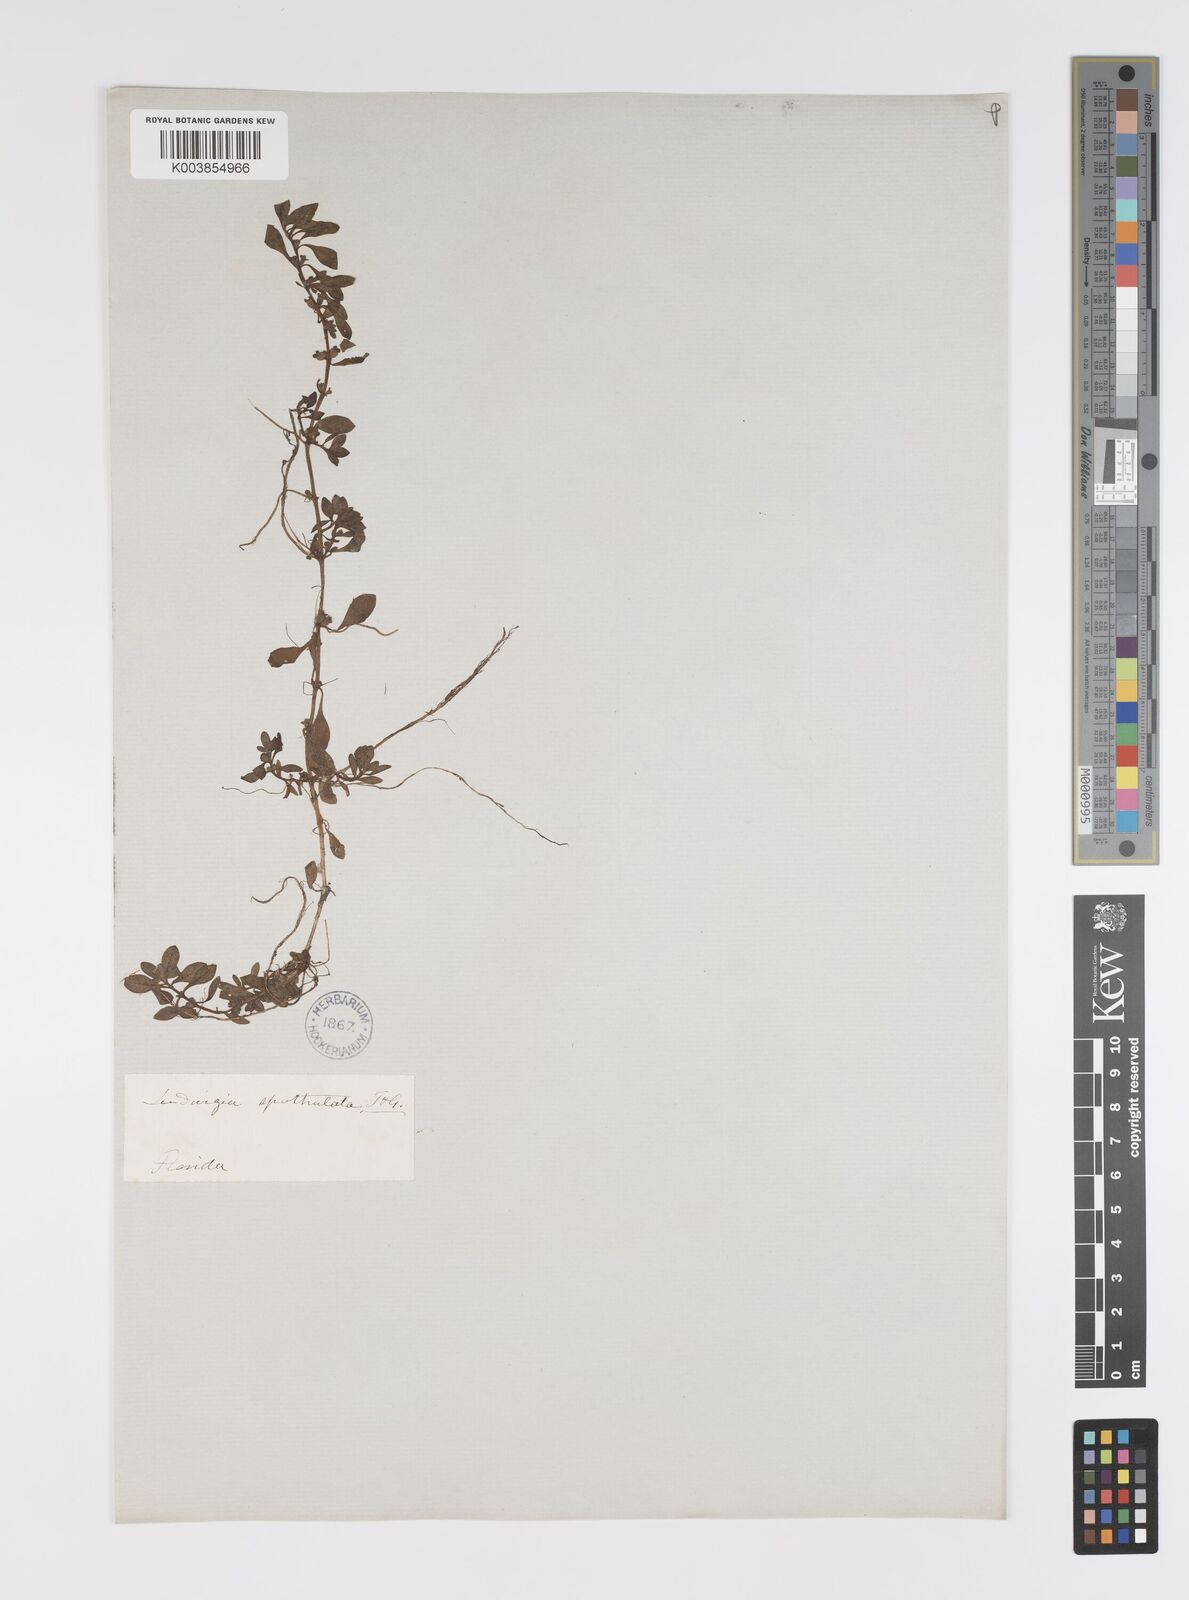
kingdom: Plantae
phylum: Tracheophyta
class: Magnoliopsida
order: Myrtales
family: Onagraceae
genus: Ludwigia
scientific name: Ludwigia spathulata
